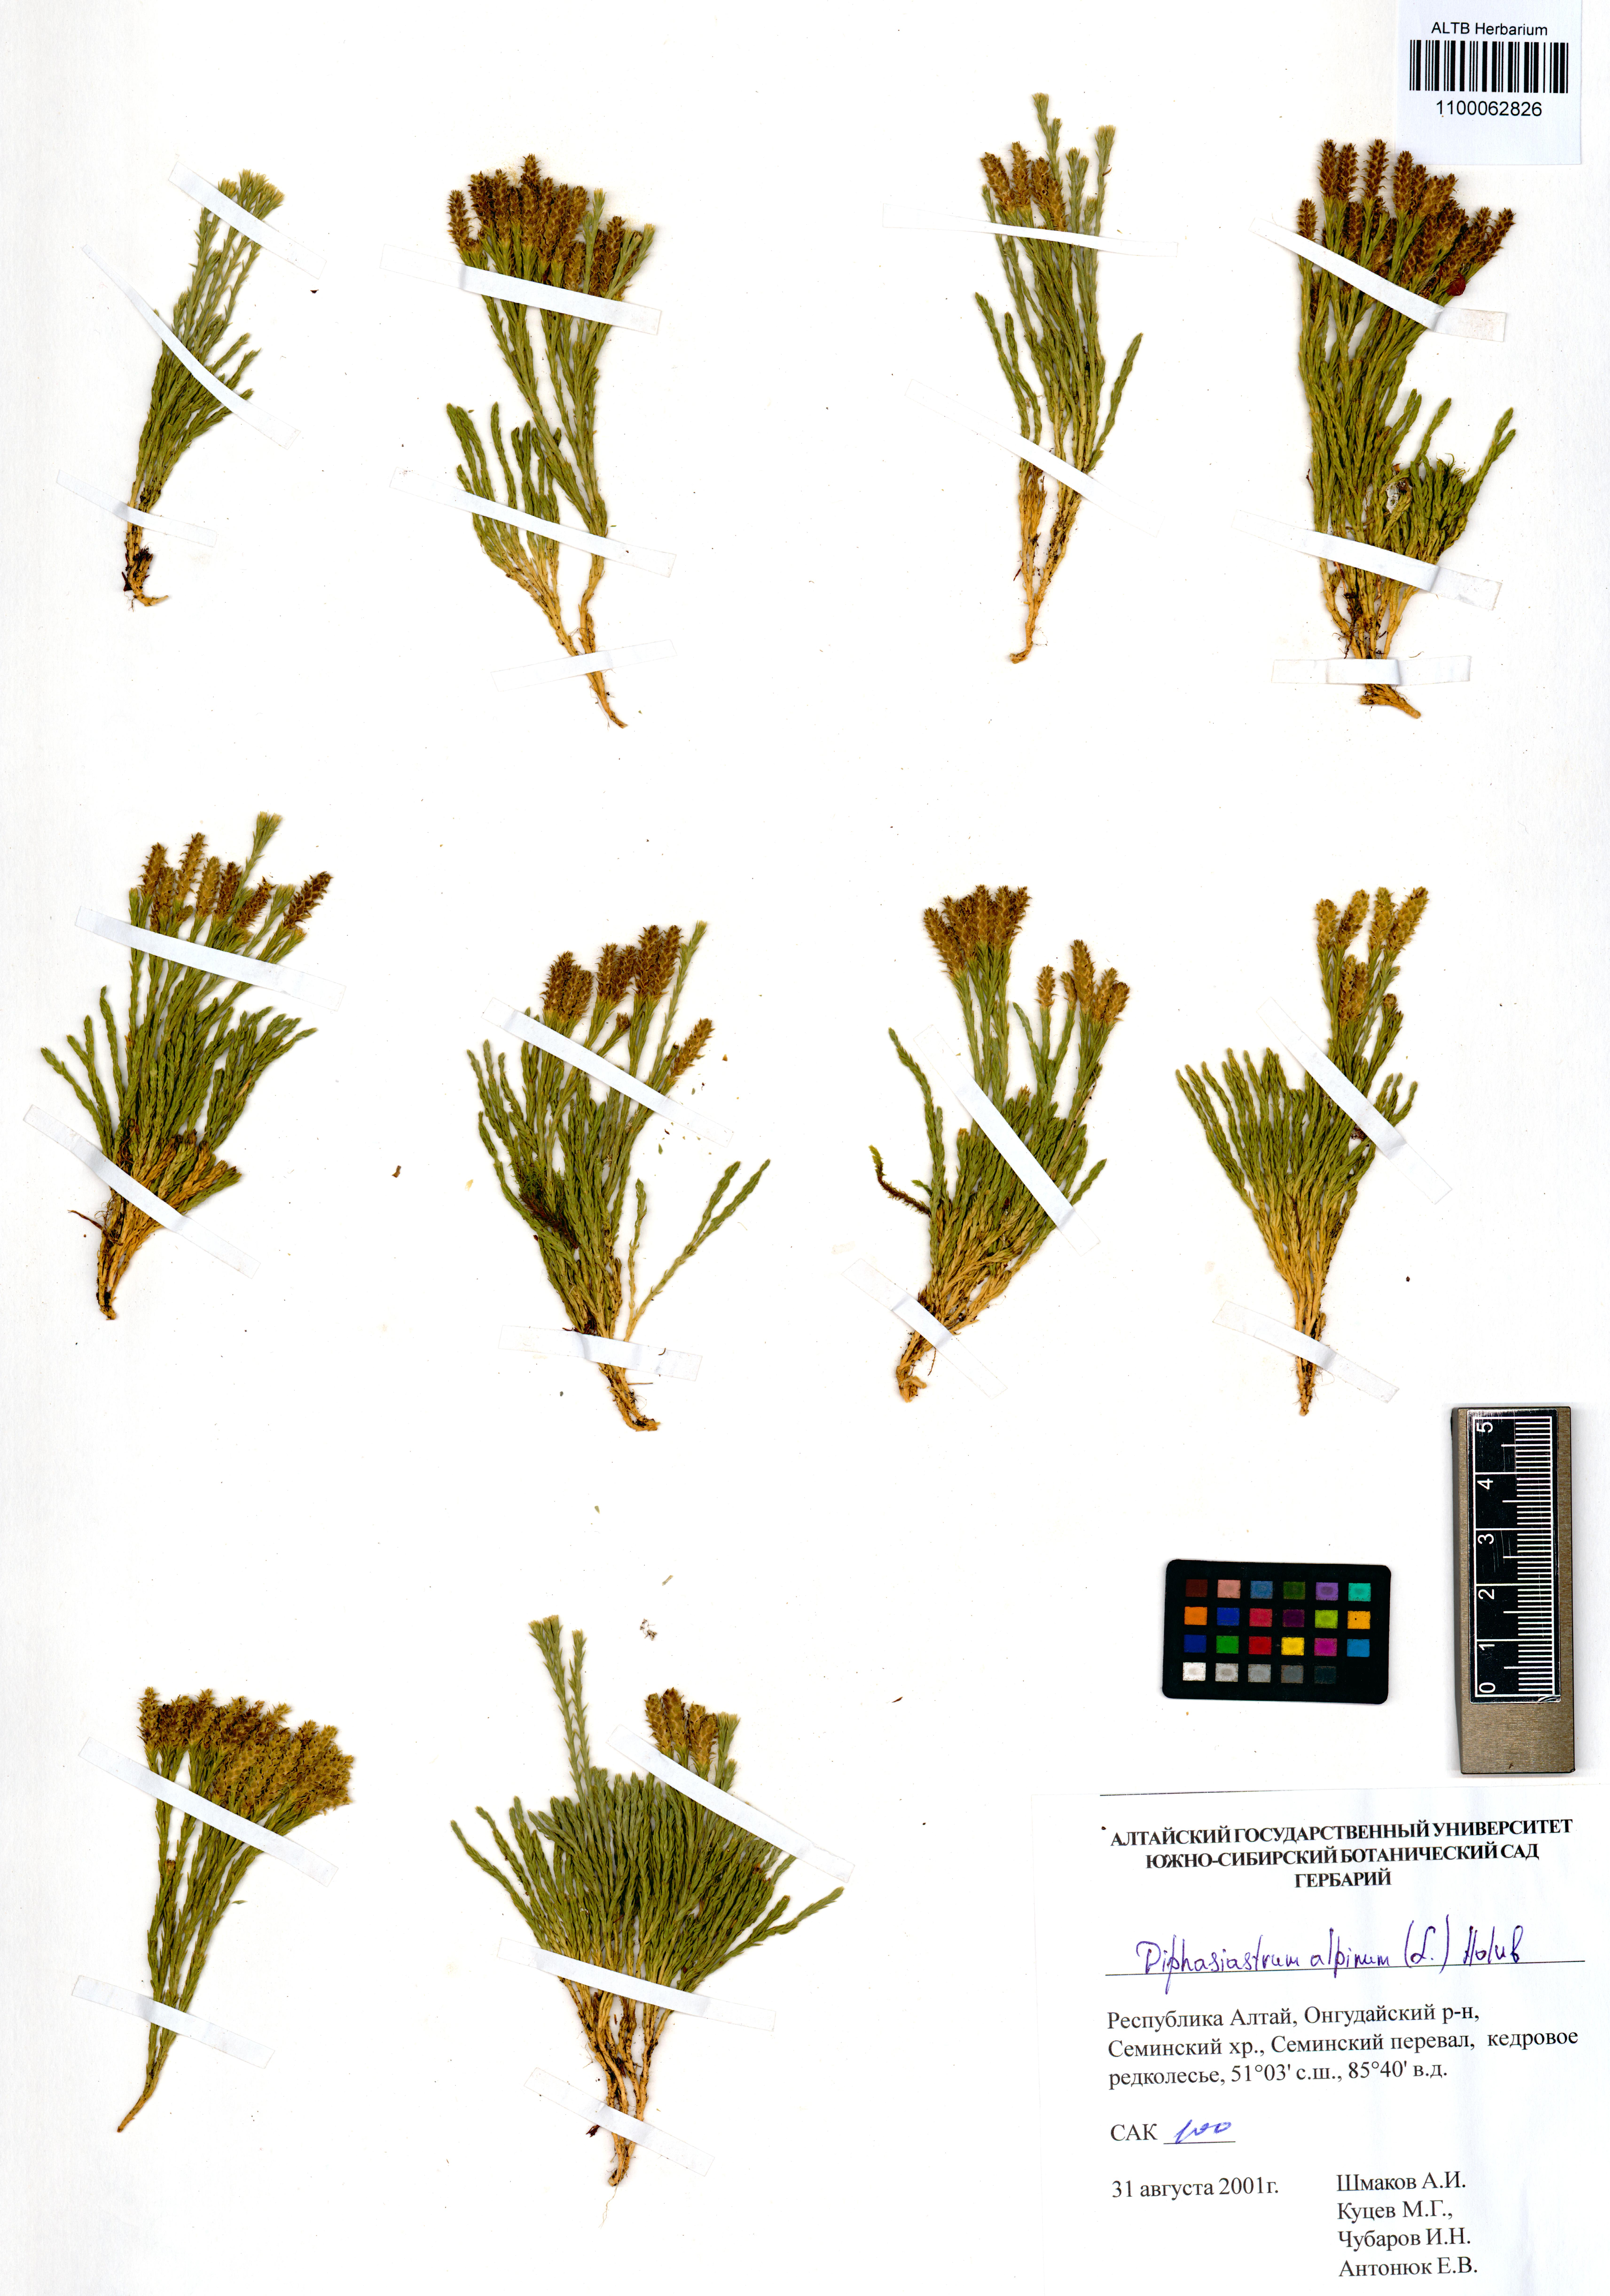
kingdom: Plantae
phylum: Tracheophyta
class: Lycopodiopsida
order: Lycopodiales
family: Lycopodiaceae
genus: Diphasiastrum
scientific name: Diphasiastrum alpinum
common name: Alpine clubmoss
